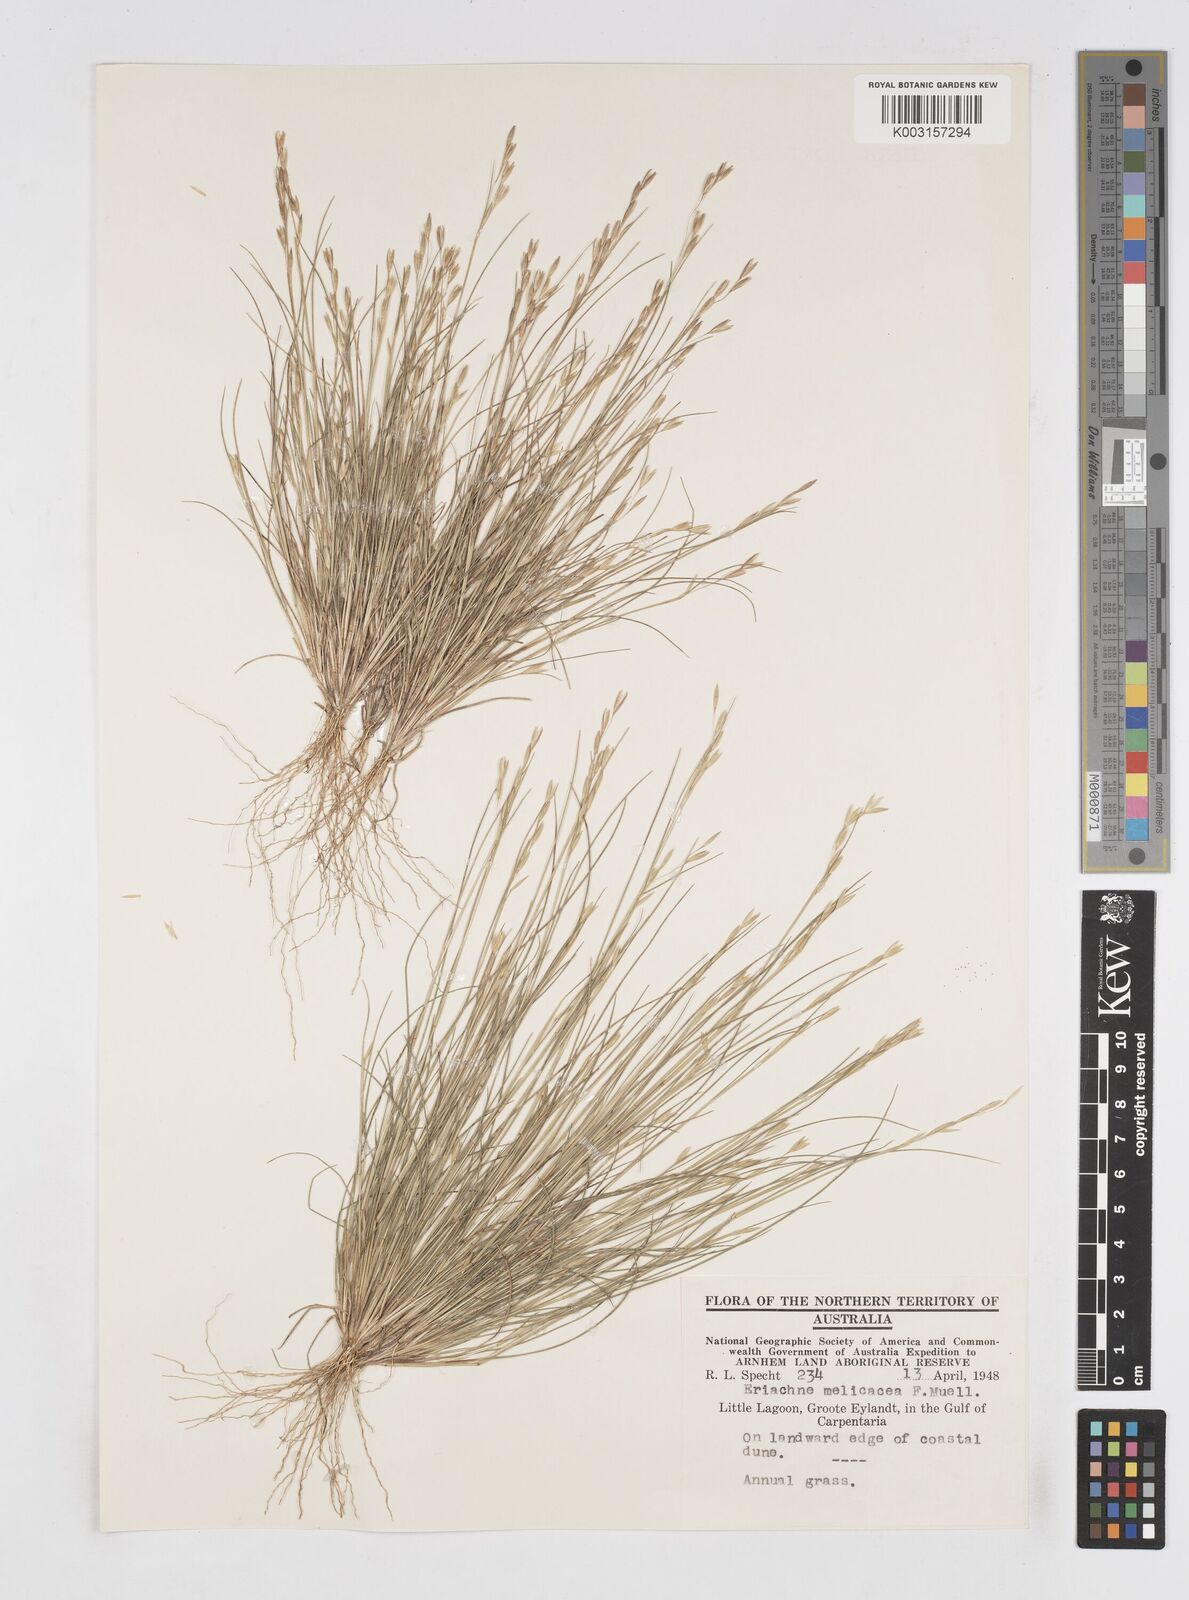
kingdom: Plantae
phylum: Tracheophyta
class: Liliopsida
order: Poales
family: Poaceae
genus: Eriachne
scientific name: Eriachne melicacea
